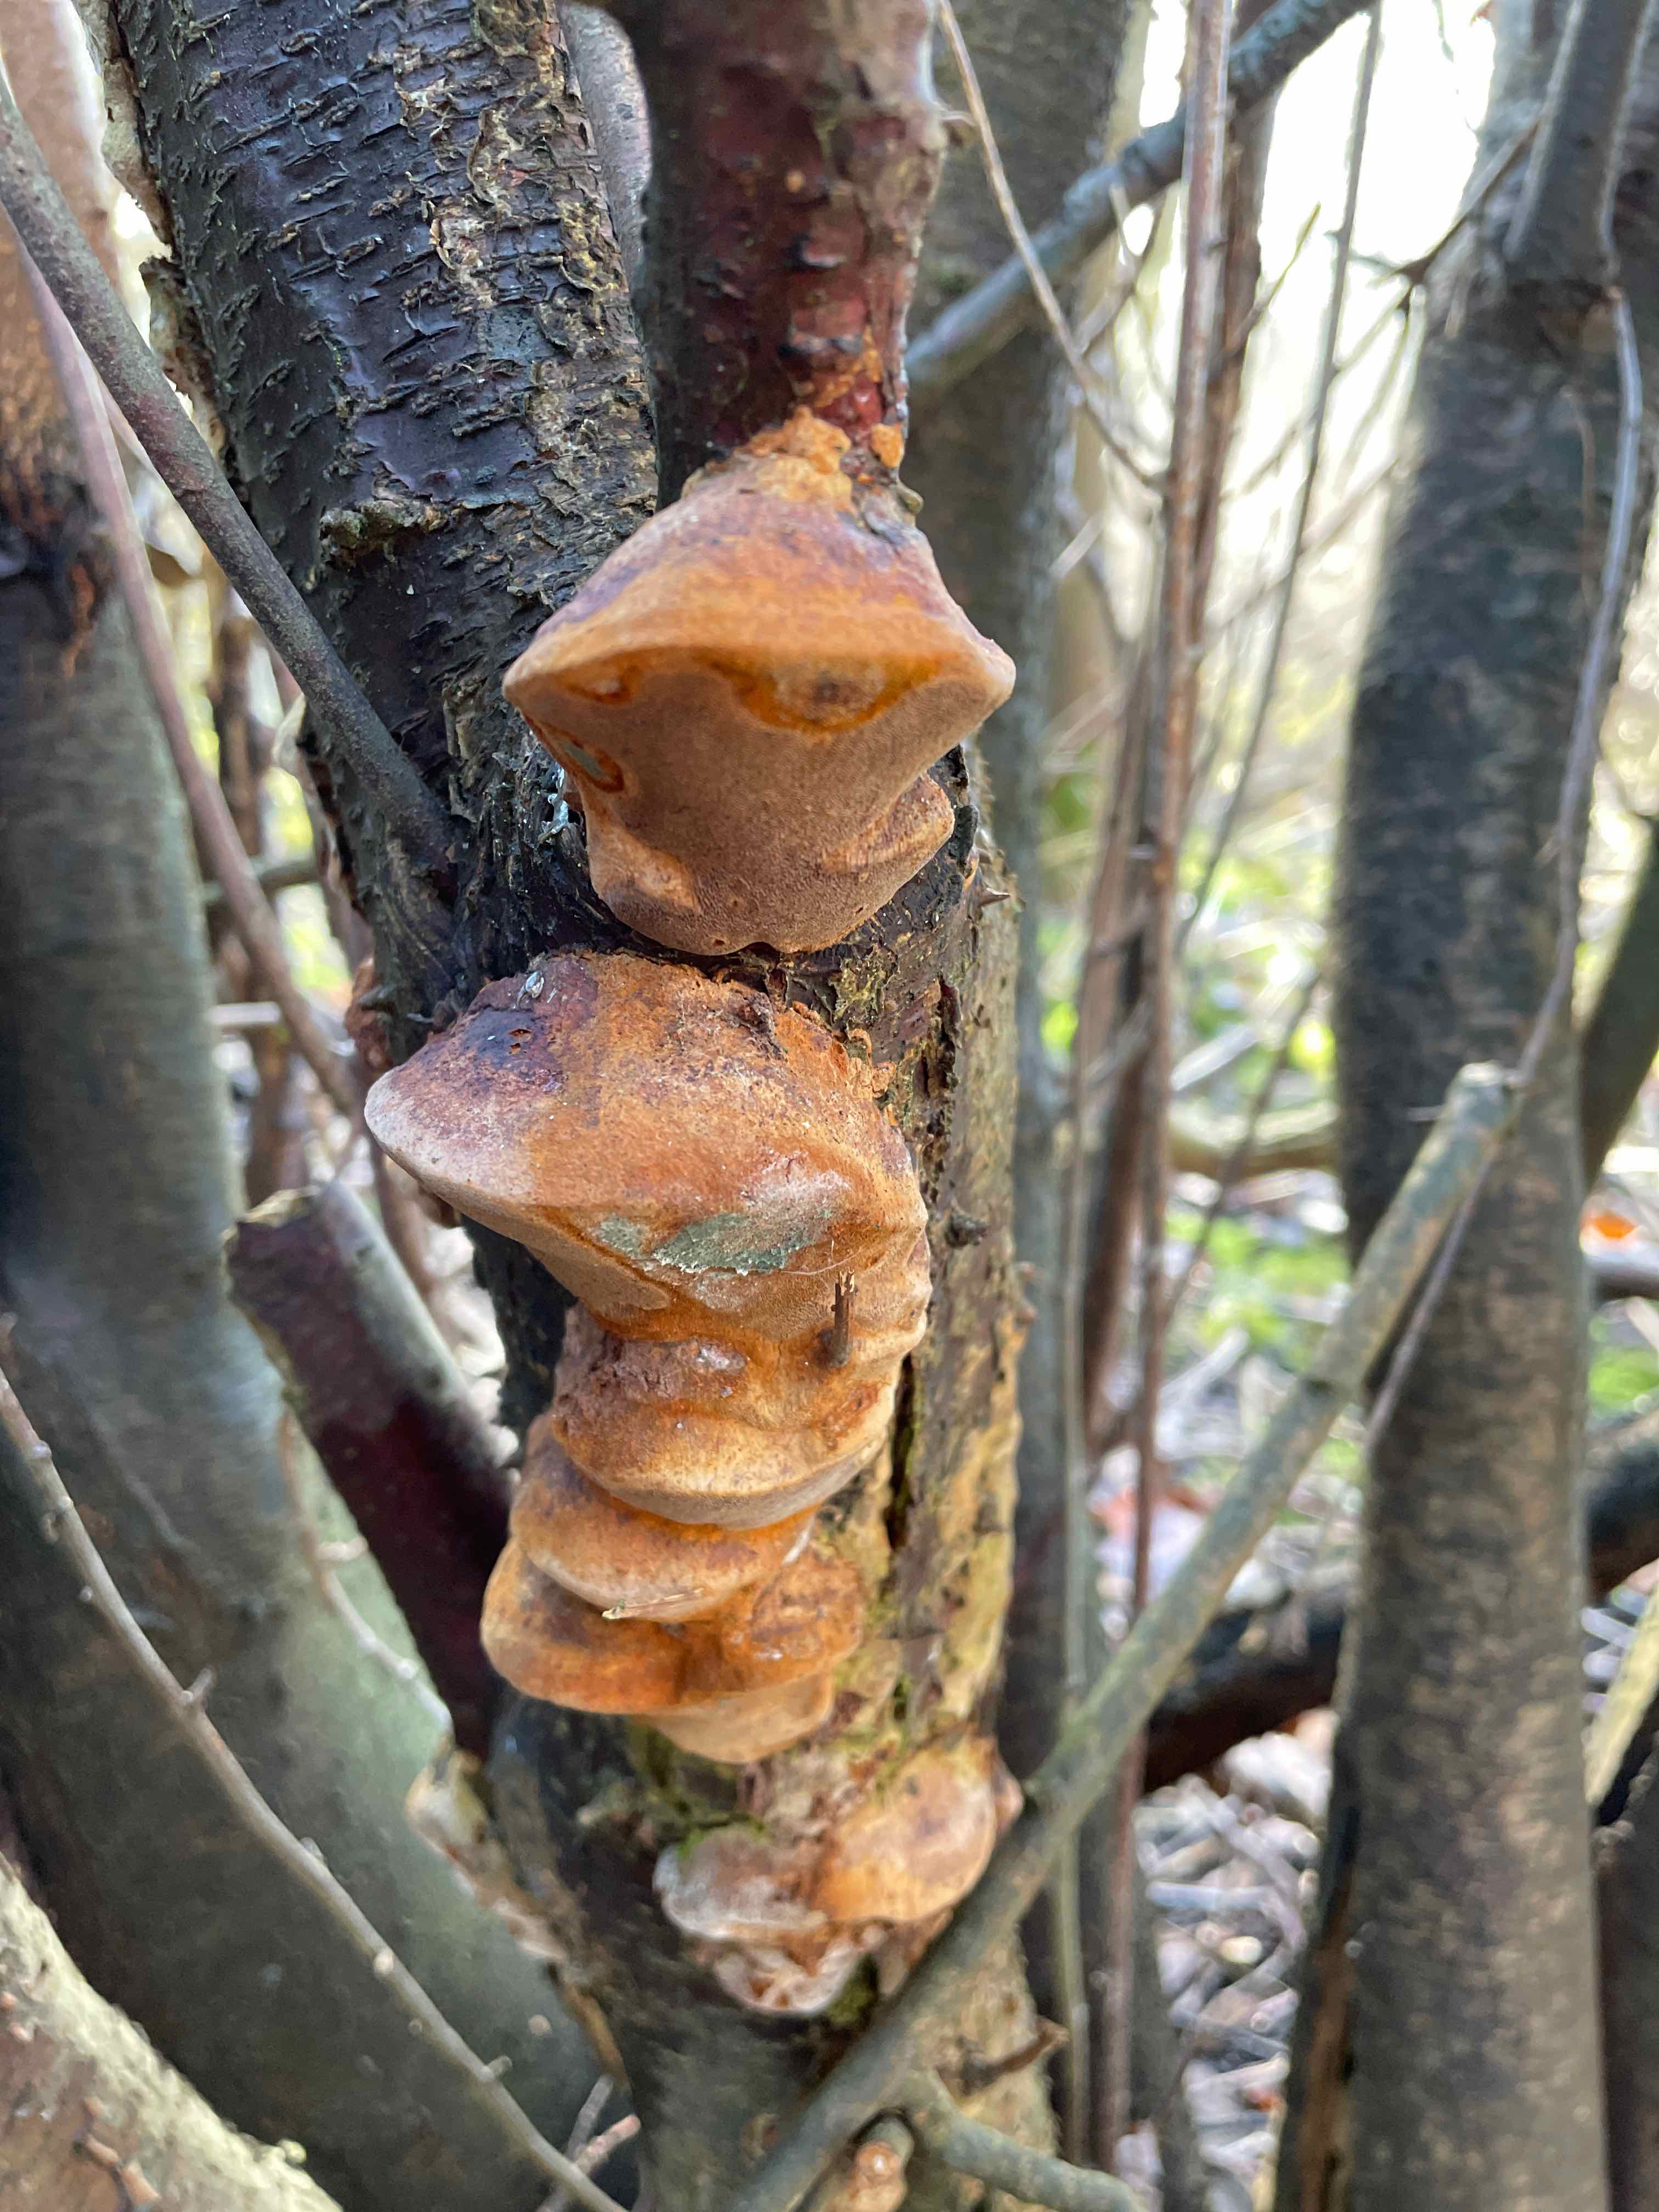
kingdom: Fungi
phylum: Basidiomycota
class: Agaricomycetes
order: Hymenochaetales
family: Hymenochaetaceae
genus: Phellinus
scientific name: Phellinus pomaceus
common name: blomme-ildporesvamp
